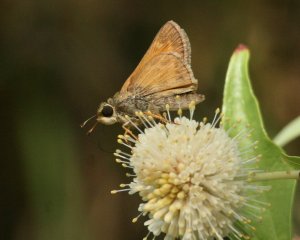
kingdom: Animalia
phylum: Arthropoda
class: Insecta
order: Lepidoptera
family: Hesperiidae
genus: Atalopedes
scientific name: Atalopedes campestris
